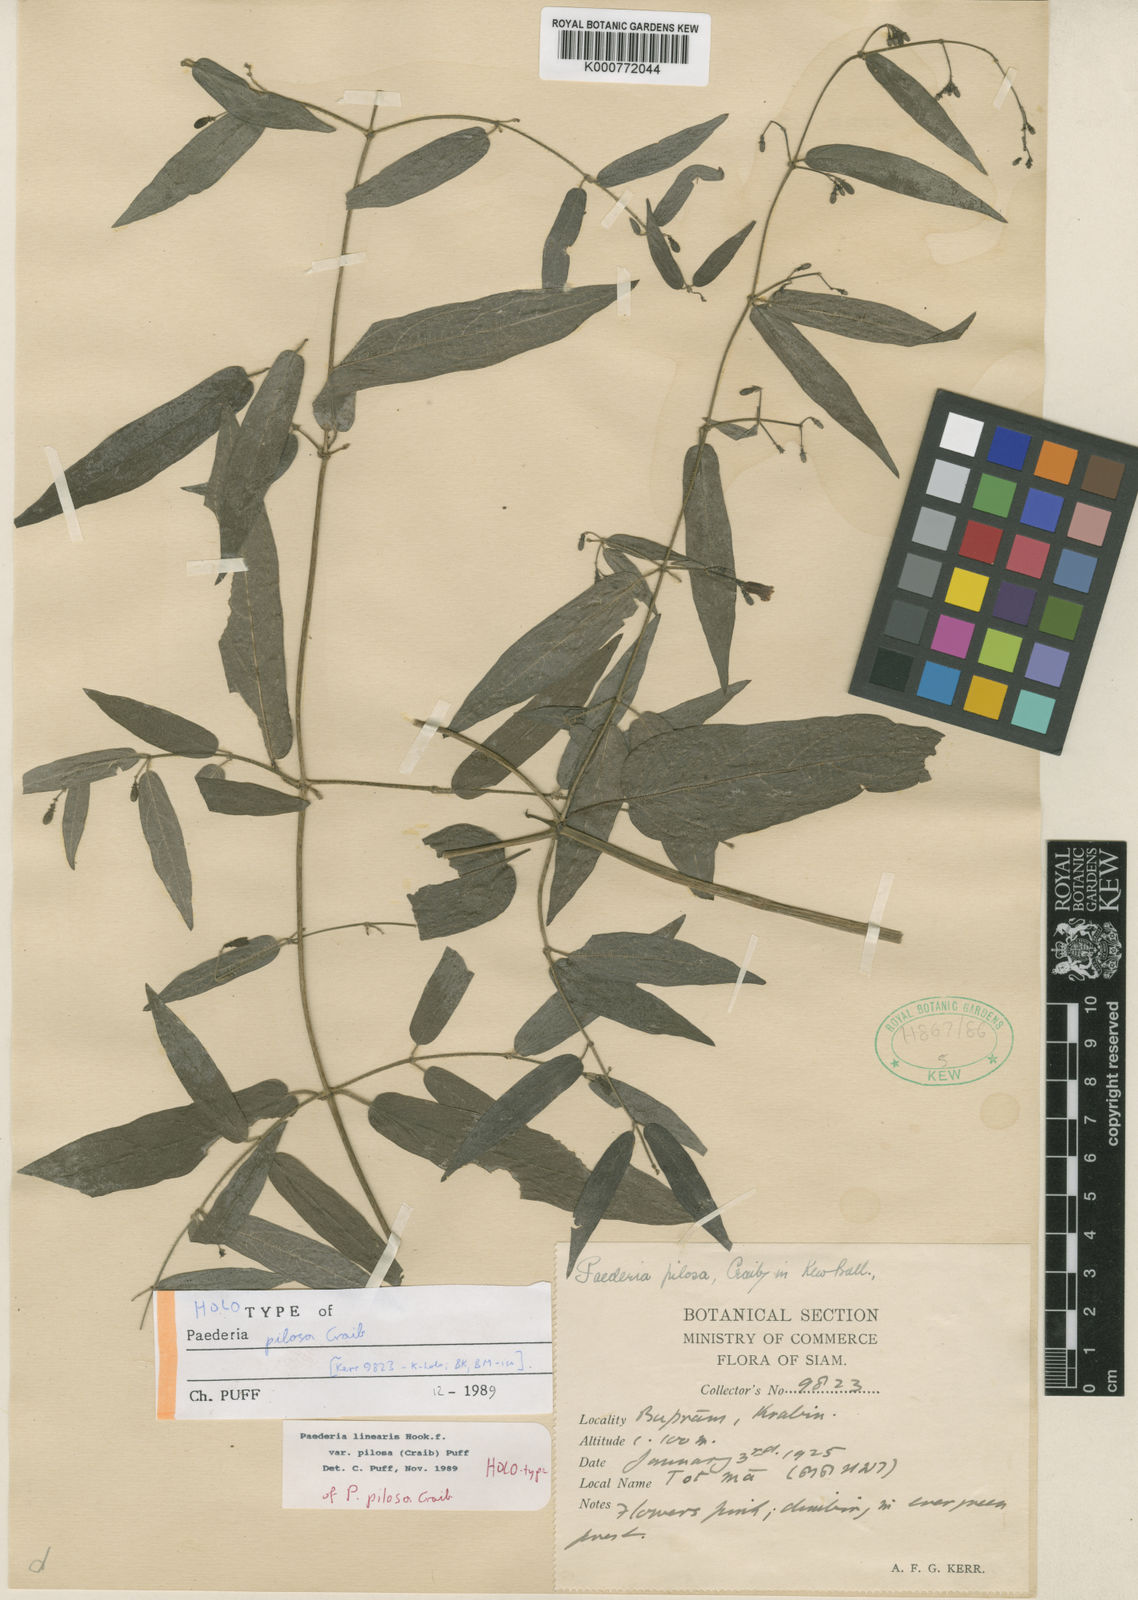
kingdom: Plantae
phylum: Tracheophyta
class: Magnoliopsida
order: Gentianales
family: Rubiaceae
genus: Paederia
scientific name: Paederia linearis
